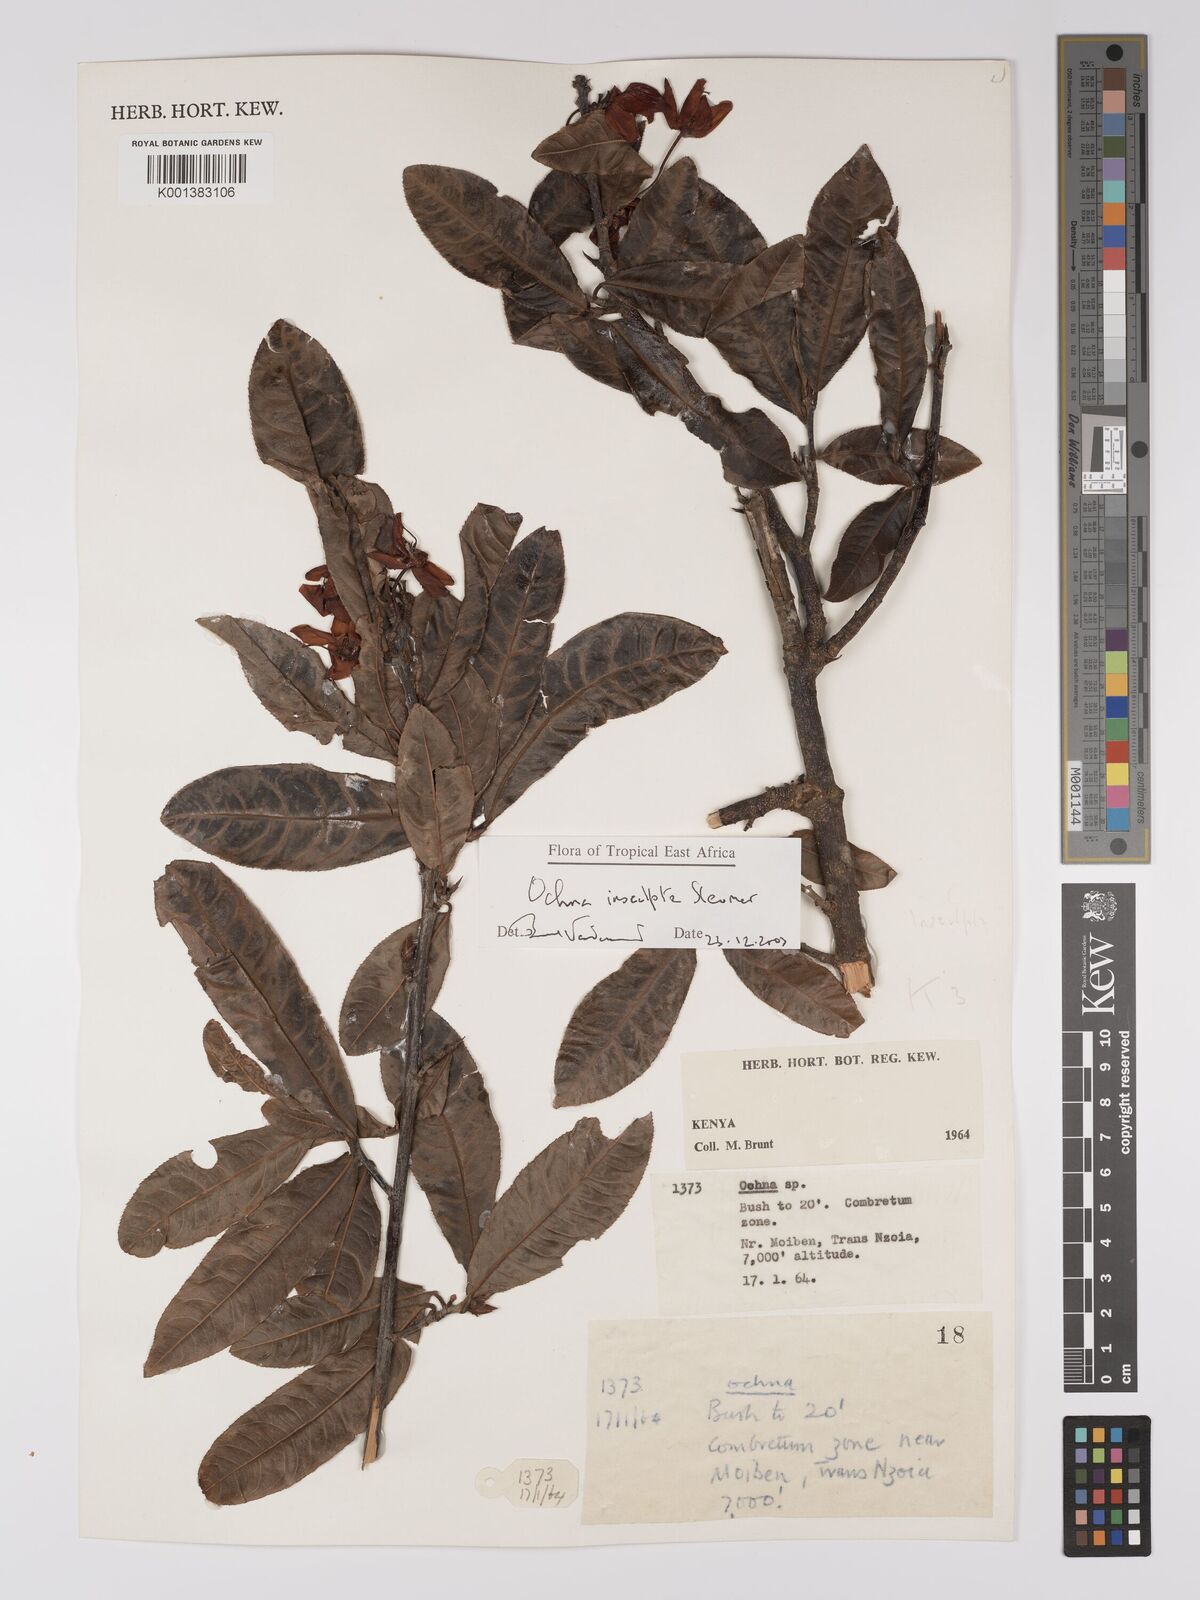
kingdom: Plantae
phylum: Tracheophyta
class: Magnoliopsida
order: Malpighiales
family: Ochnaceae
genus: Ochna
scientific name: Ochna insculpta
